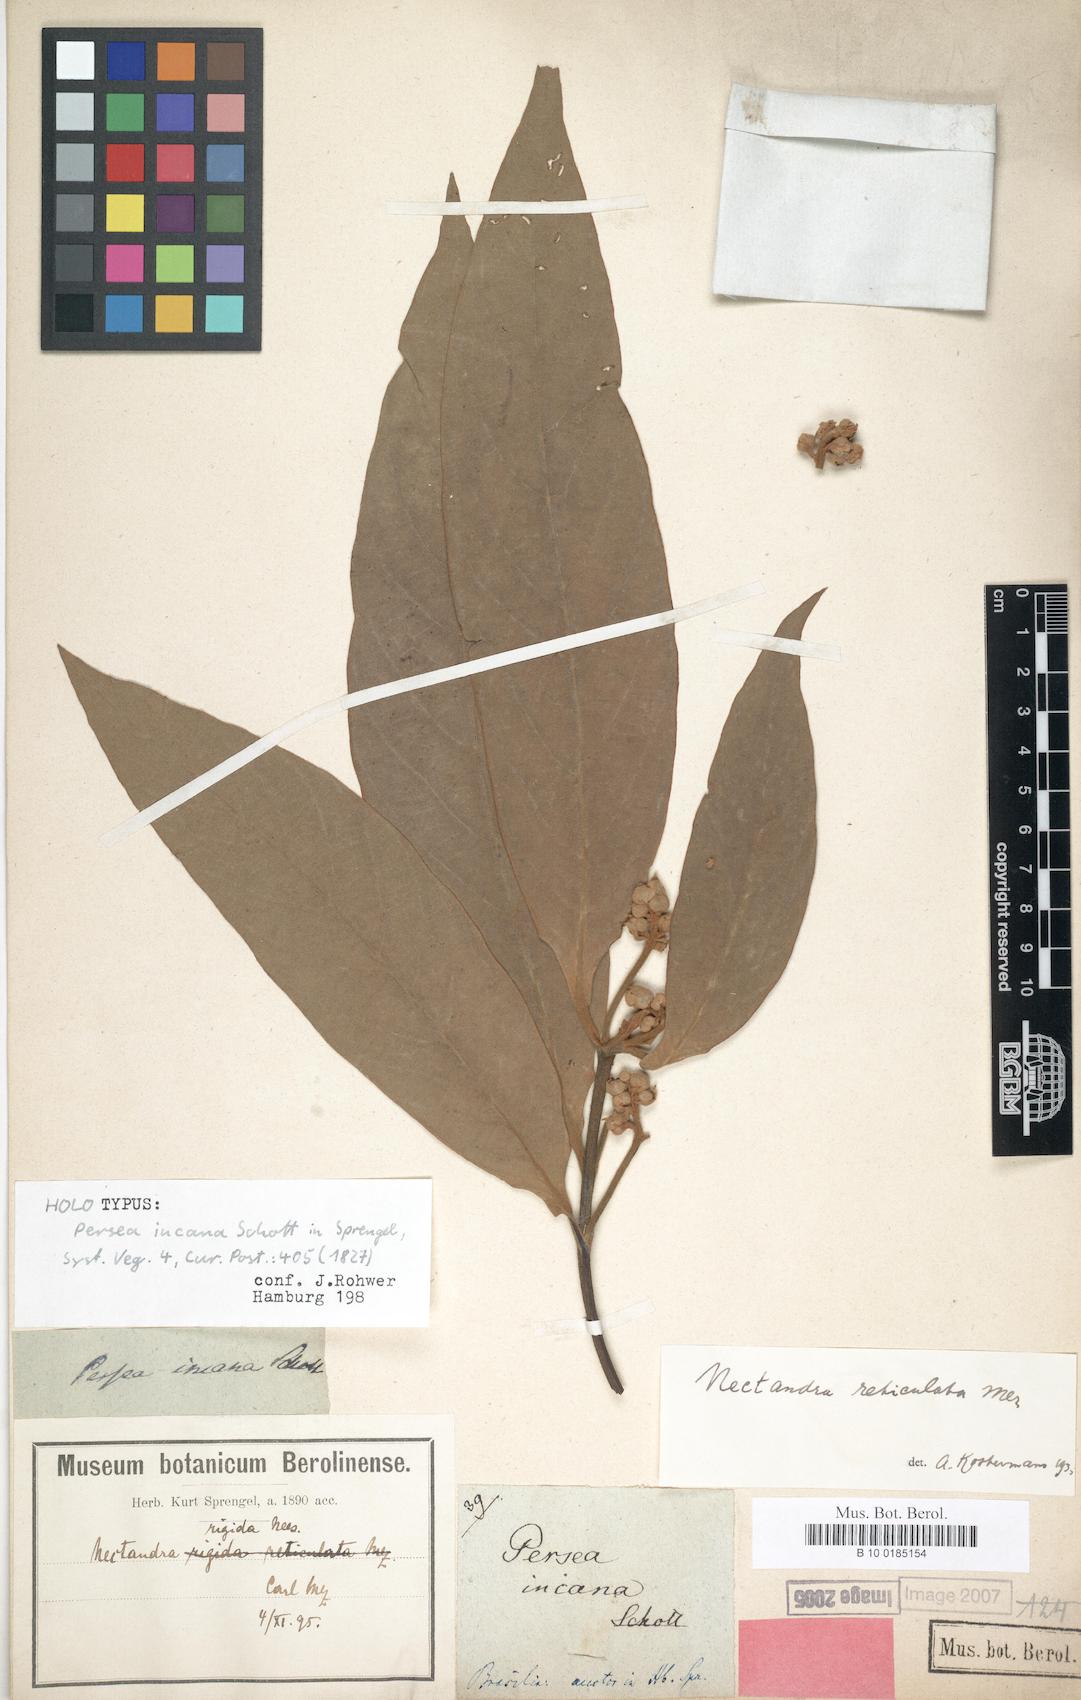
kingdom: Plantae
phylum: Tracheophyta
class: Magnoliopsida
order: Laurales
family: Lauraceae
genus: Nectandra
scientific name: Nectandra villosa
